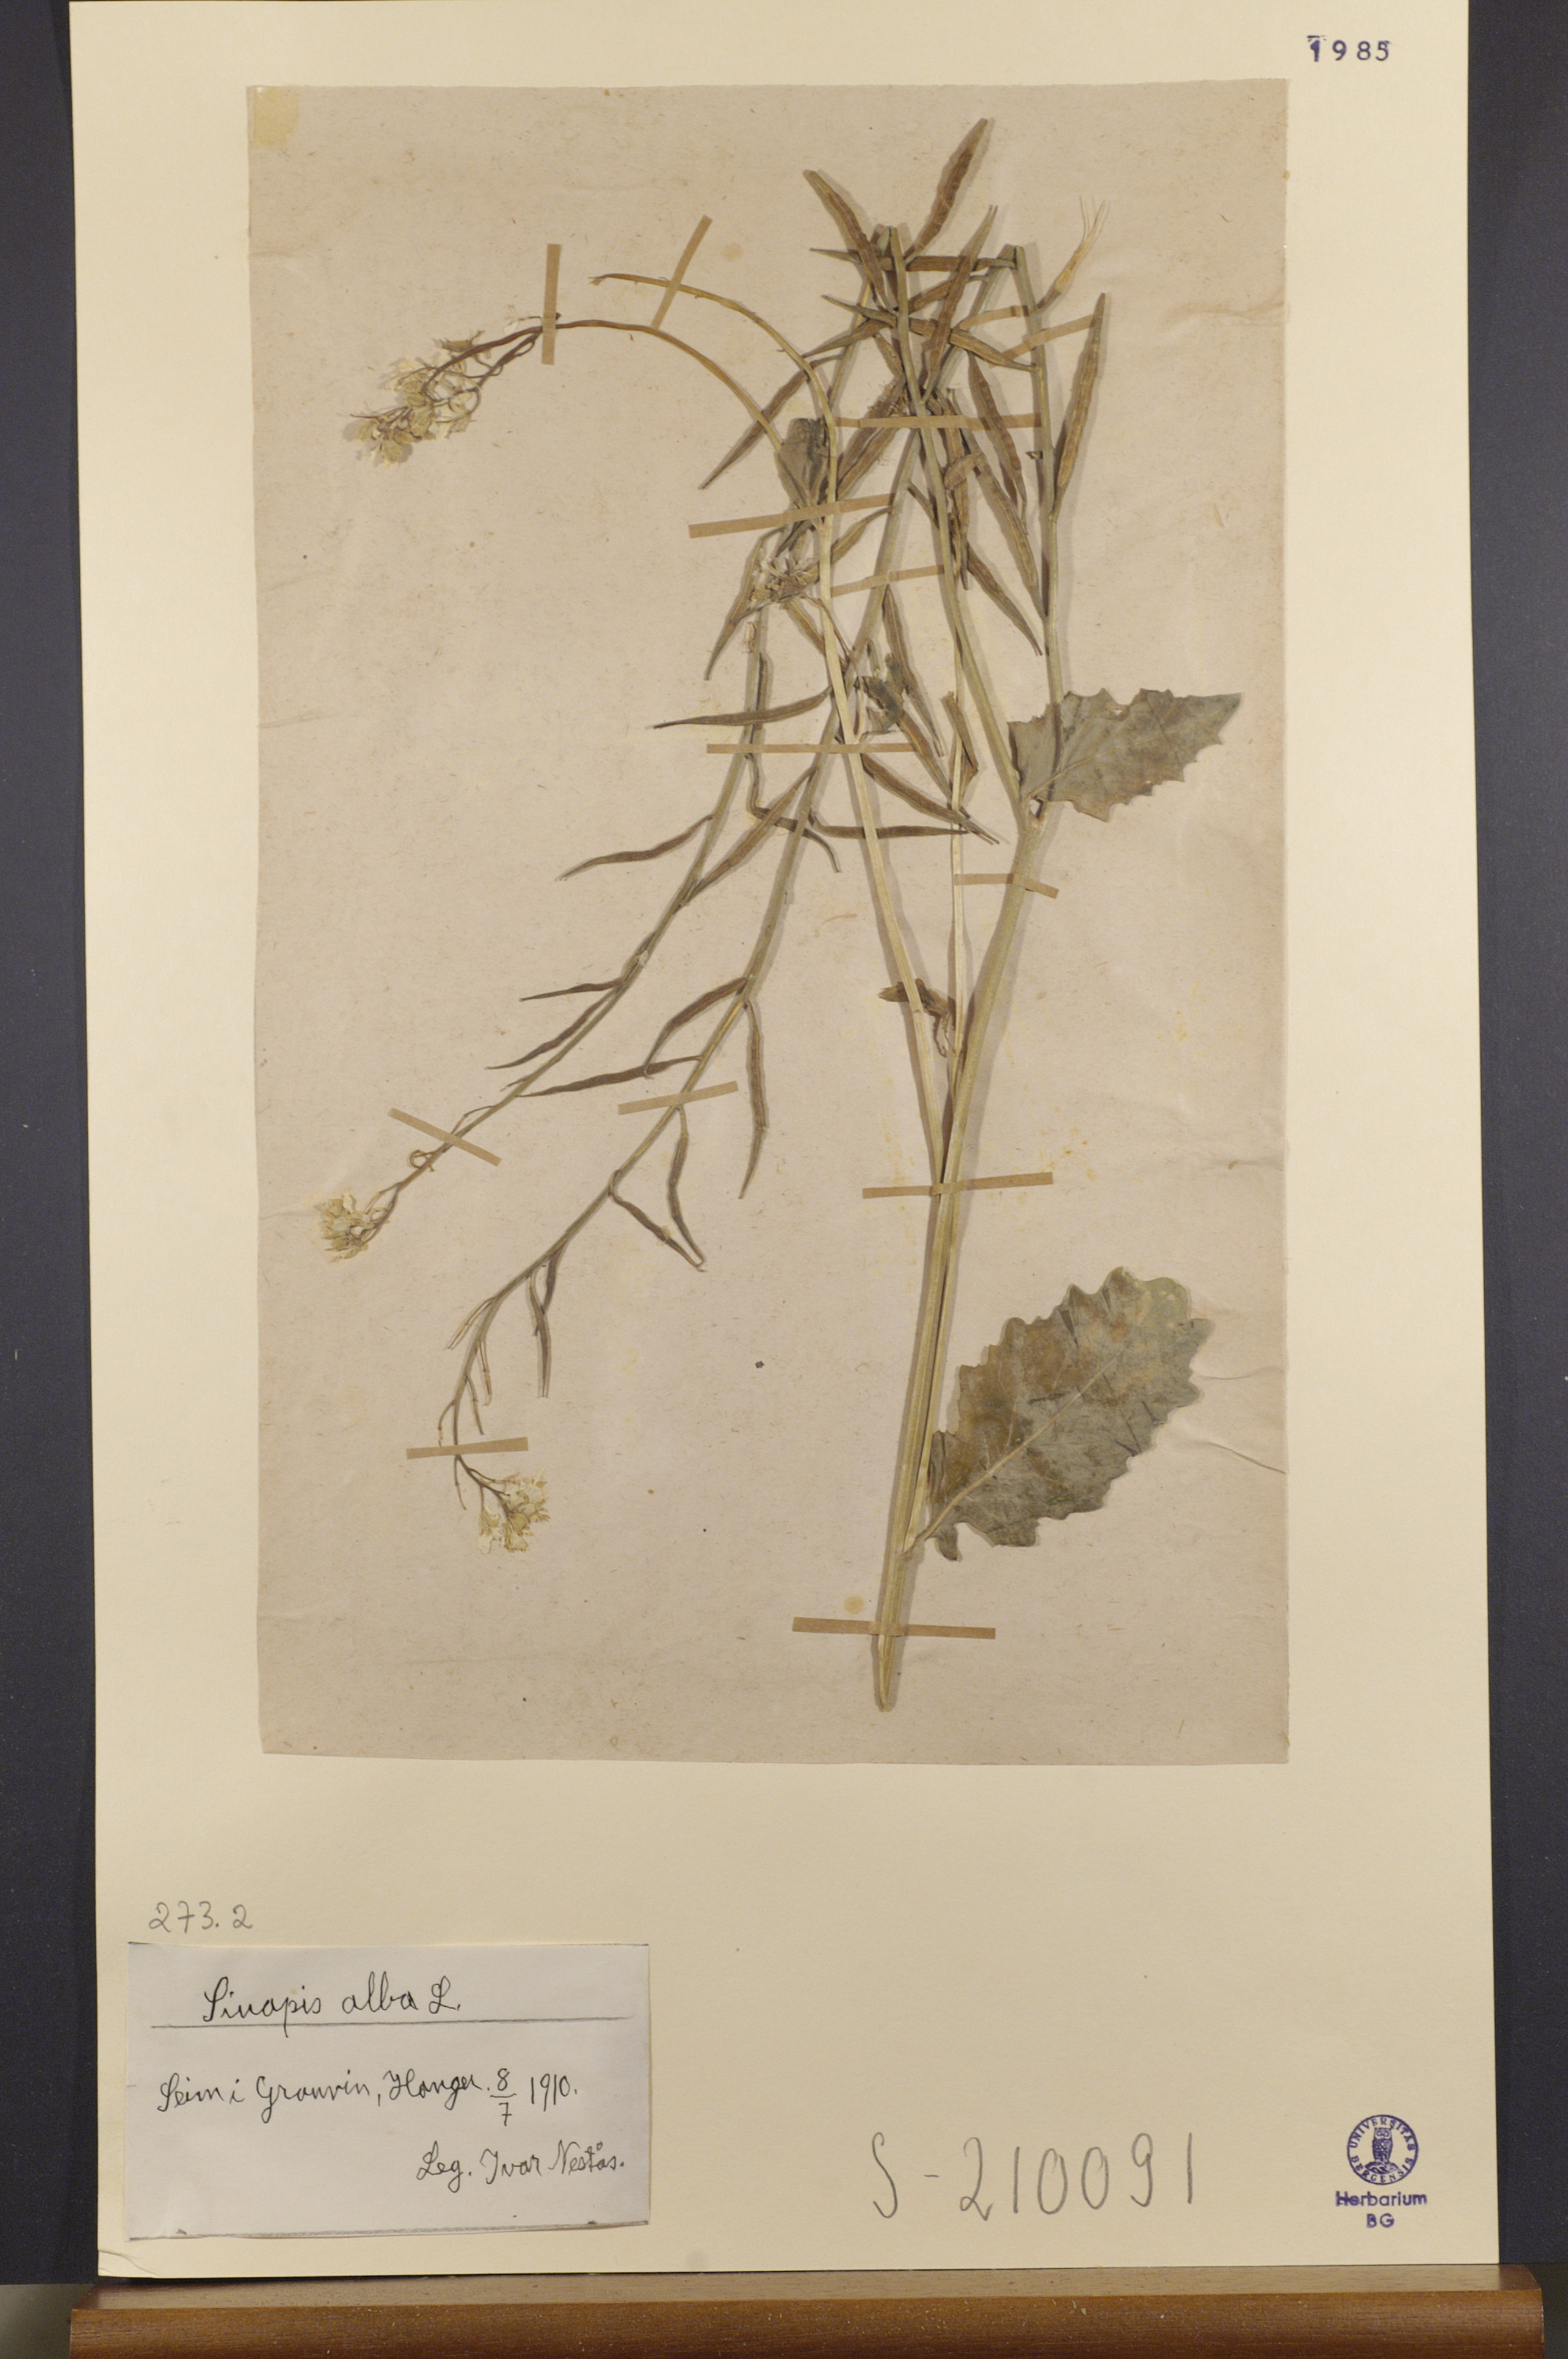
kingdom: Plantae
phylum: Tracheophyta
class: Magnoliopsida
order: Brassicales
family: Brassicaceae
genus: Sinapis
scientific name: Sinapis alba
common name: White mustard
